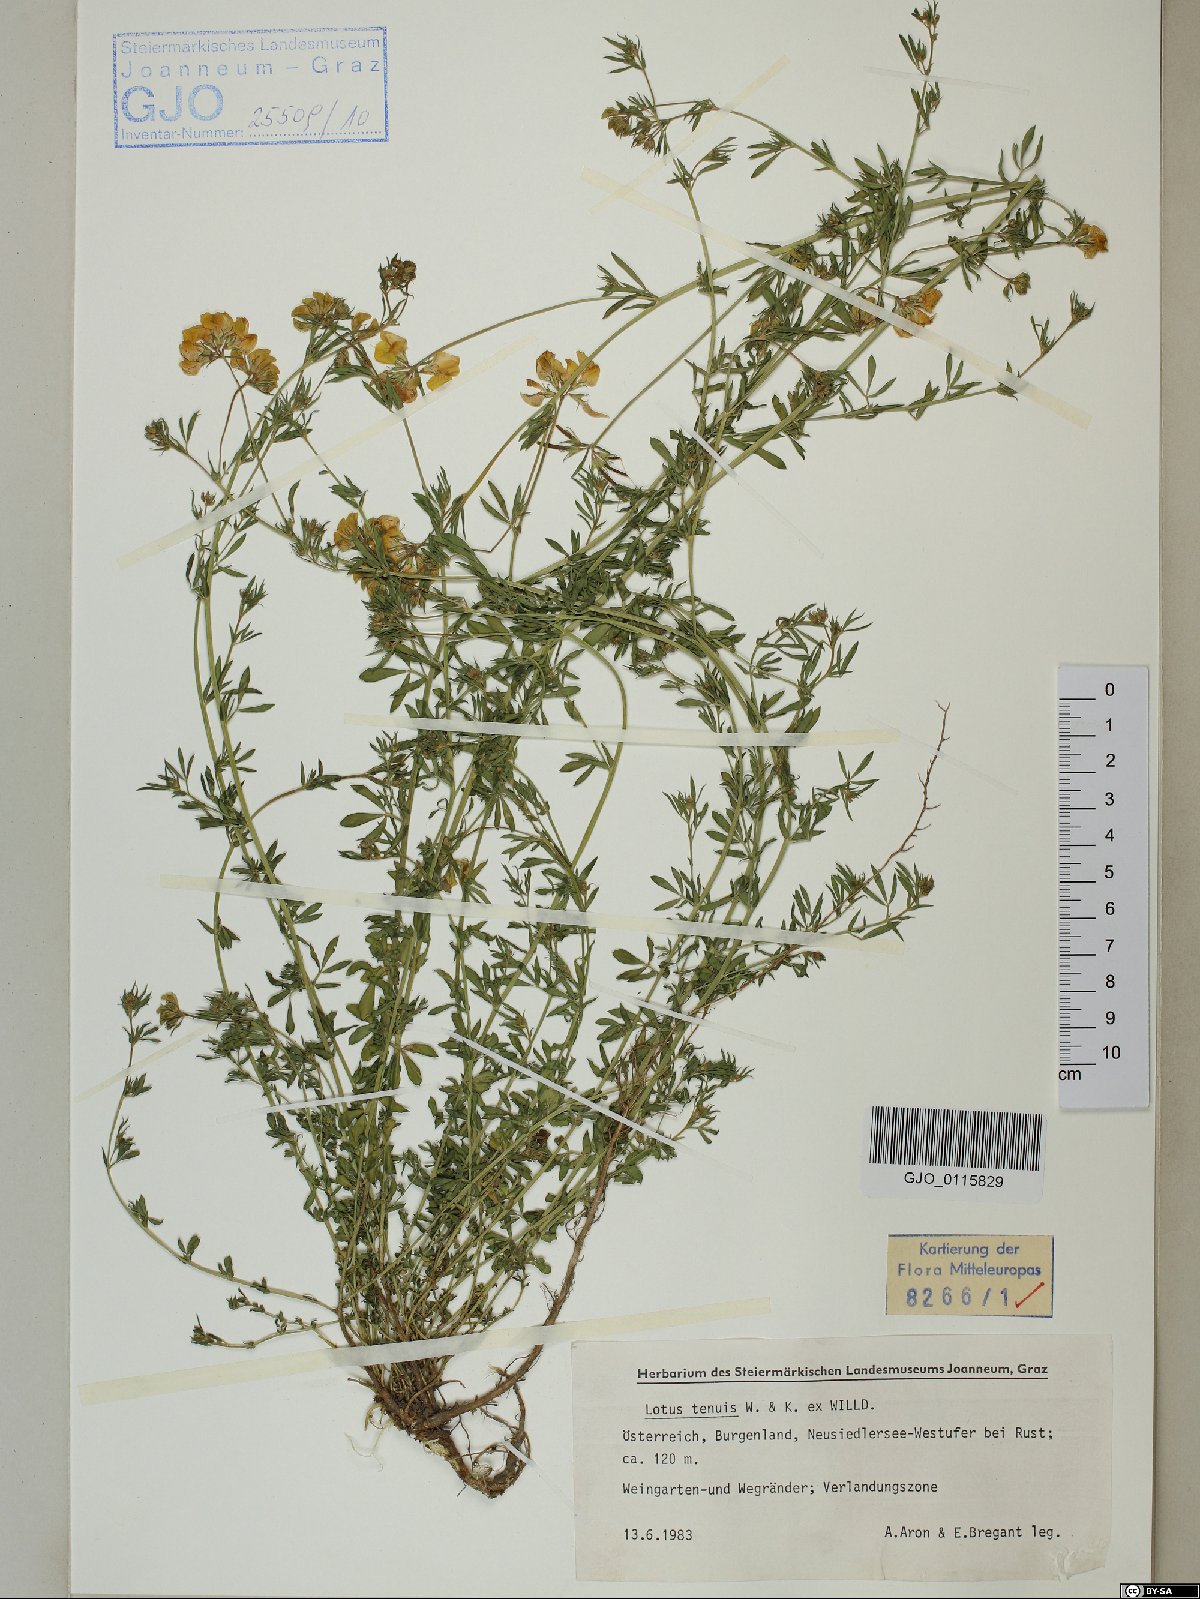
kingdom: Plantae
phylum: Tracheophyta
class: Magnoliopsida
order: Fabales
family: Fabaceae
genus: Lotus
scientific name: Lotus tenuis
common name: Narrow-leaved bird's-foot-trefoil
